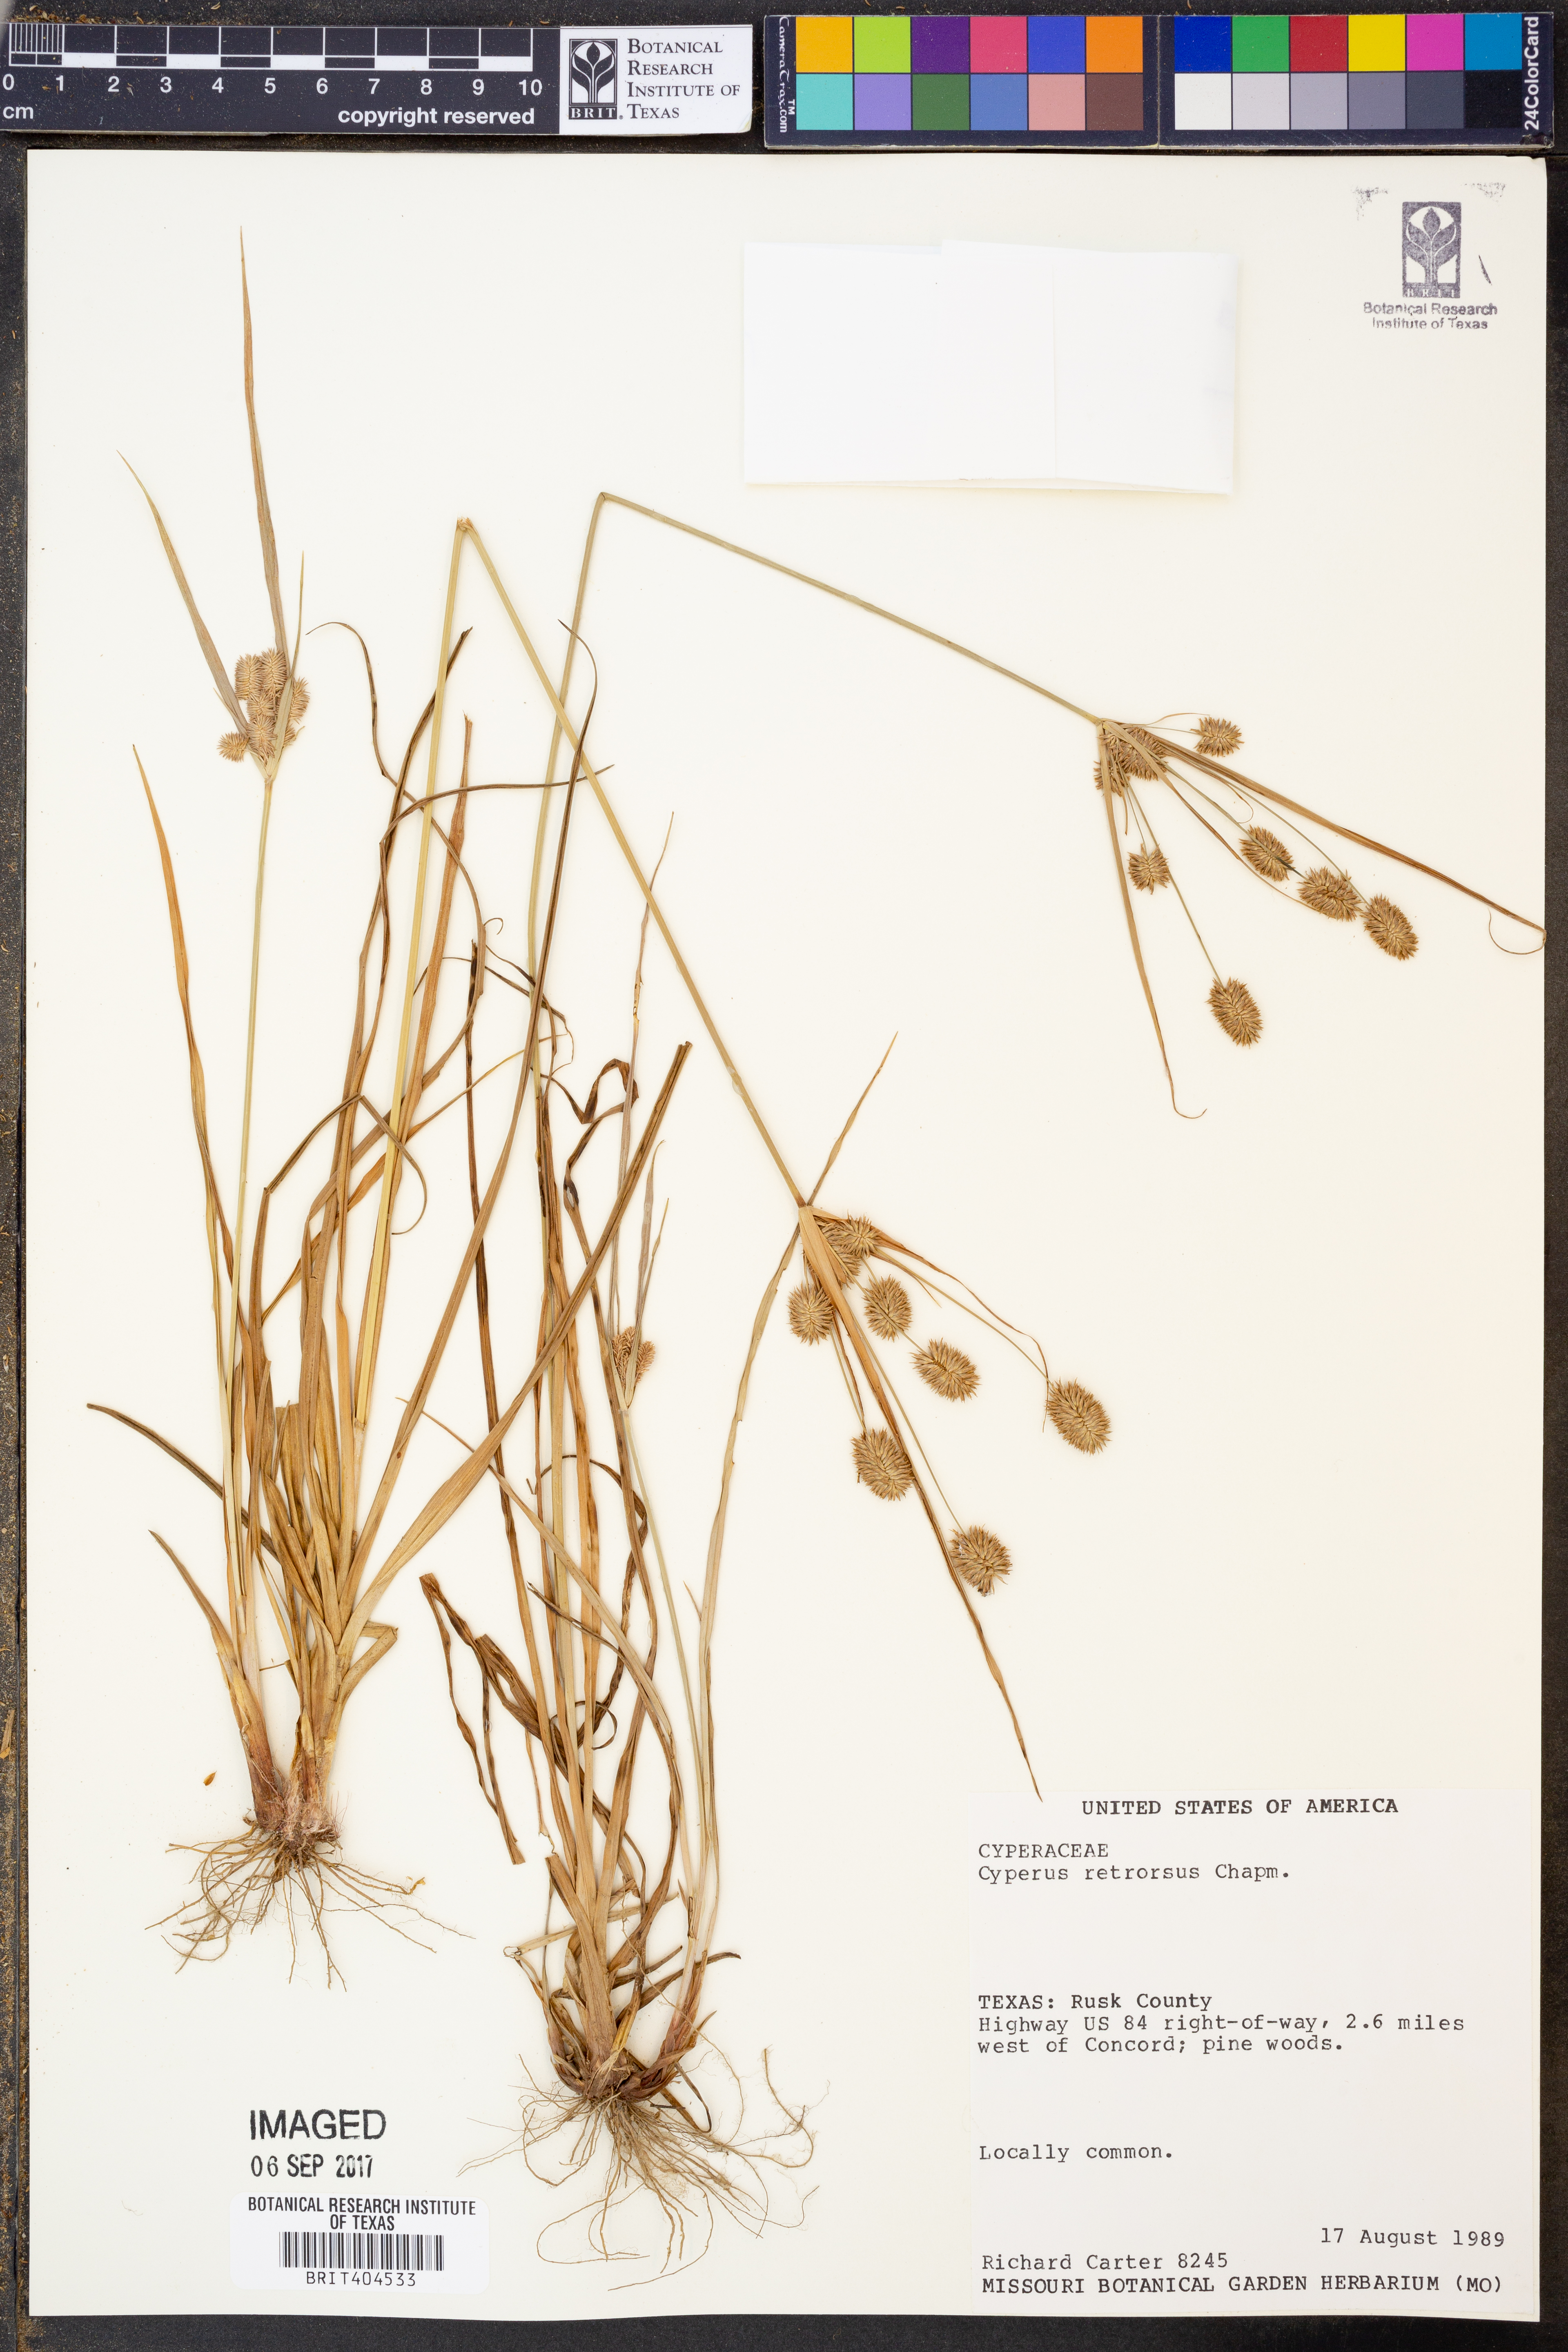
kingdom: Plantae
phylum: Tracheophyta
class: Liliopsida
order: Poales
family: Cyperaceae
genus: Cyperus
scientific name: Cyperus retrorsus
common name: Pinebarren flat sedge
